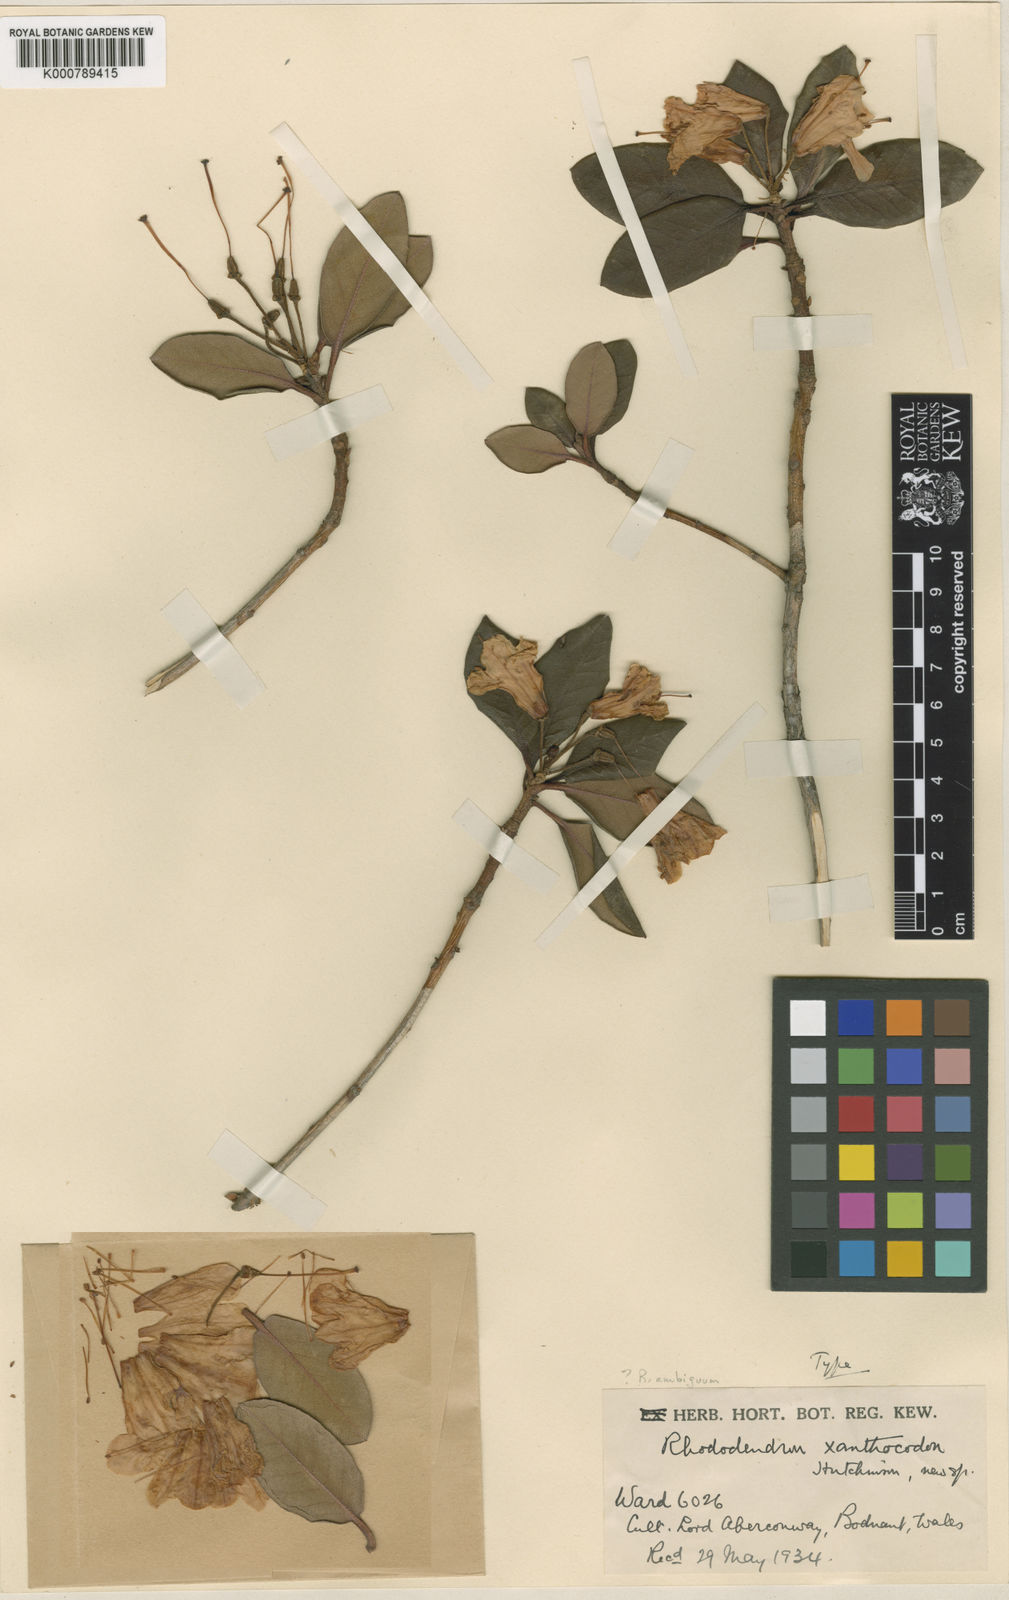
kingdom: Plantae
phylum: Tracheophyta
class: Magnoliopsida
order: Ericales
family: Ericaceae
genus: Rhododendron
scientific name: Rhododendron cinnabarinum
